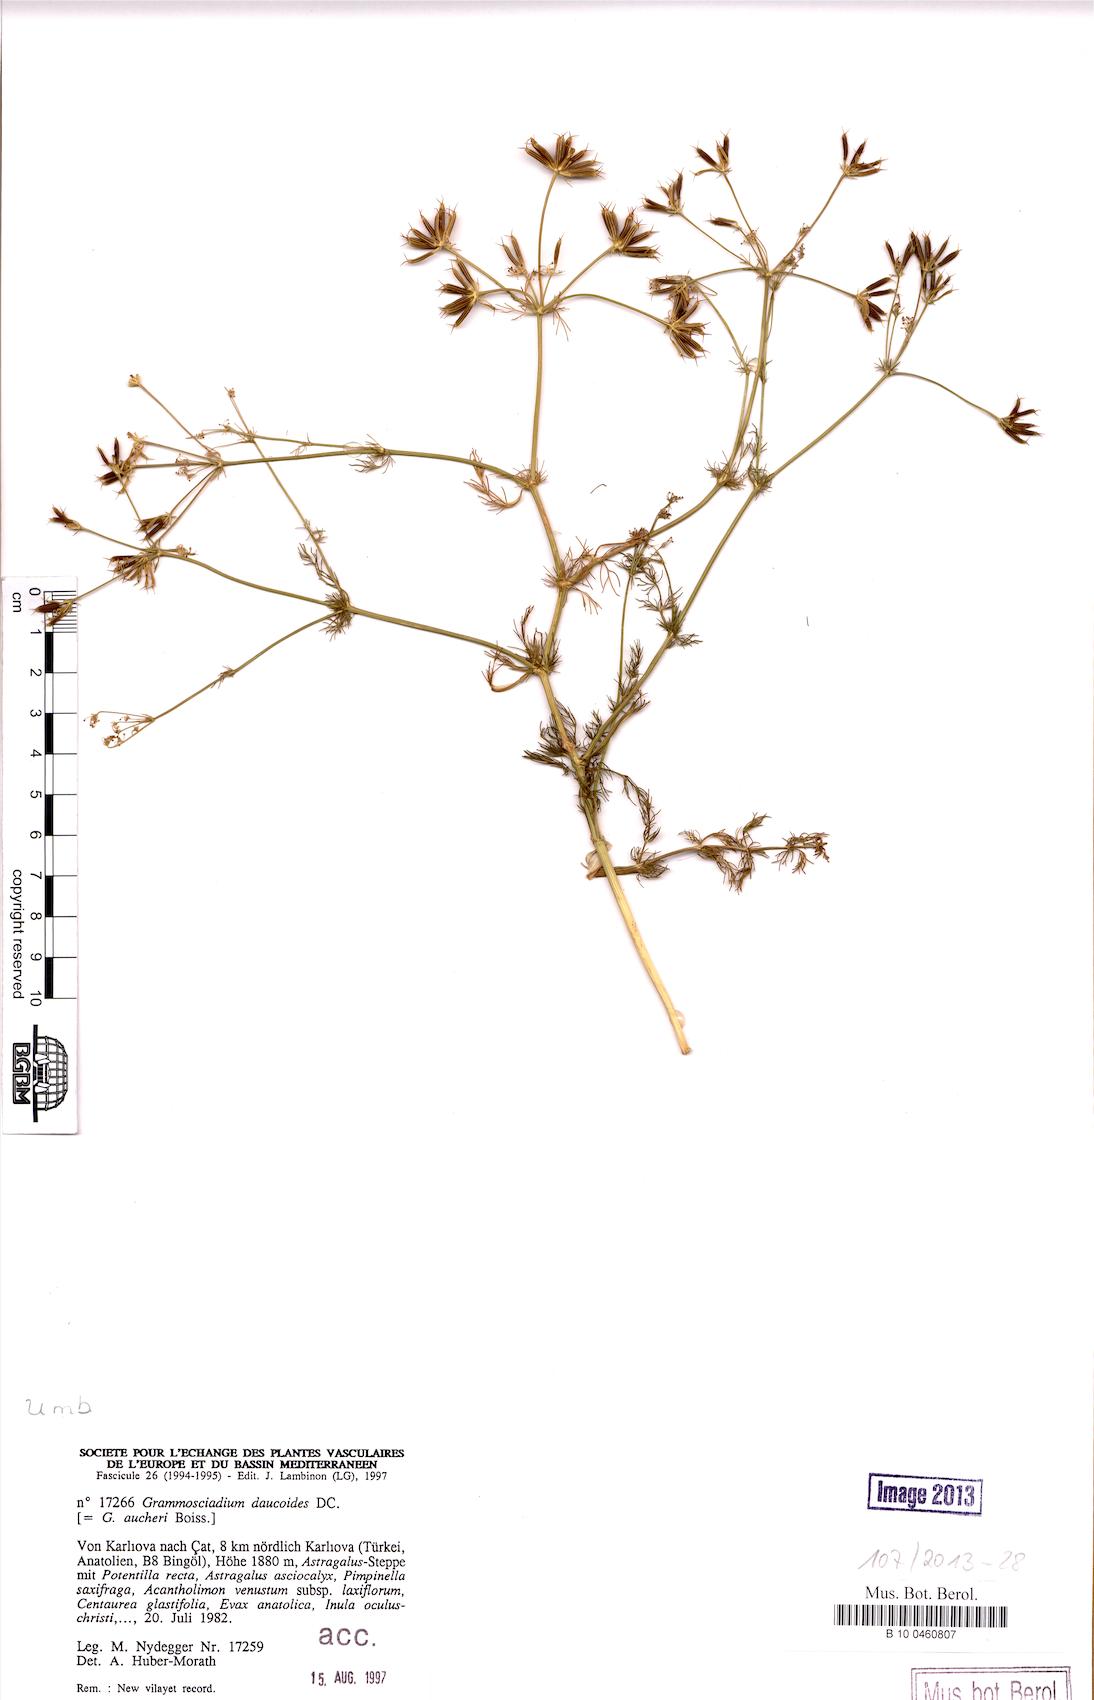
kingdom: Plantae
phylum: Tracheophyta
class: Magnoliopsida
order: Apiales
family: Apiaceae
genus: Grammosciadium
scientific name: Grammosciadium daucoides
